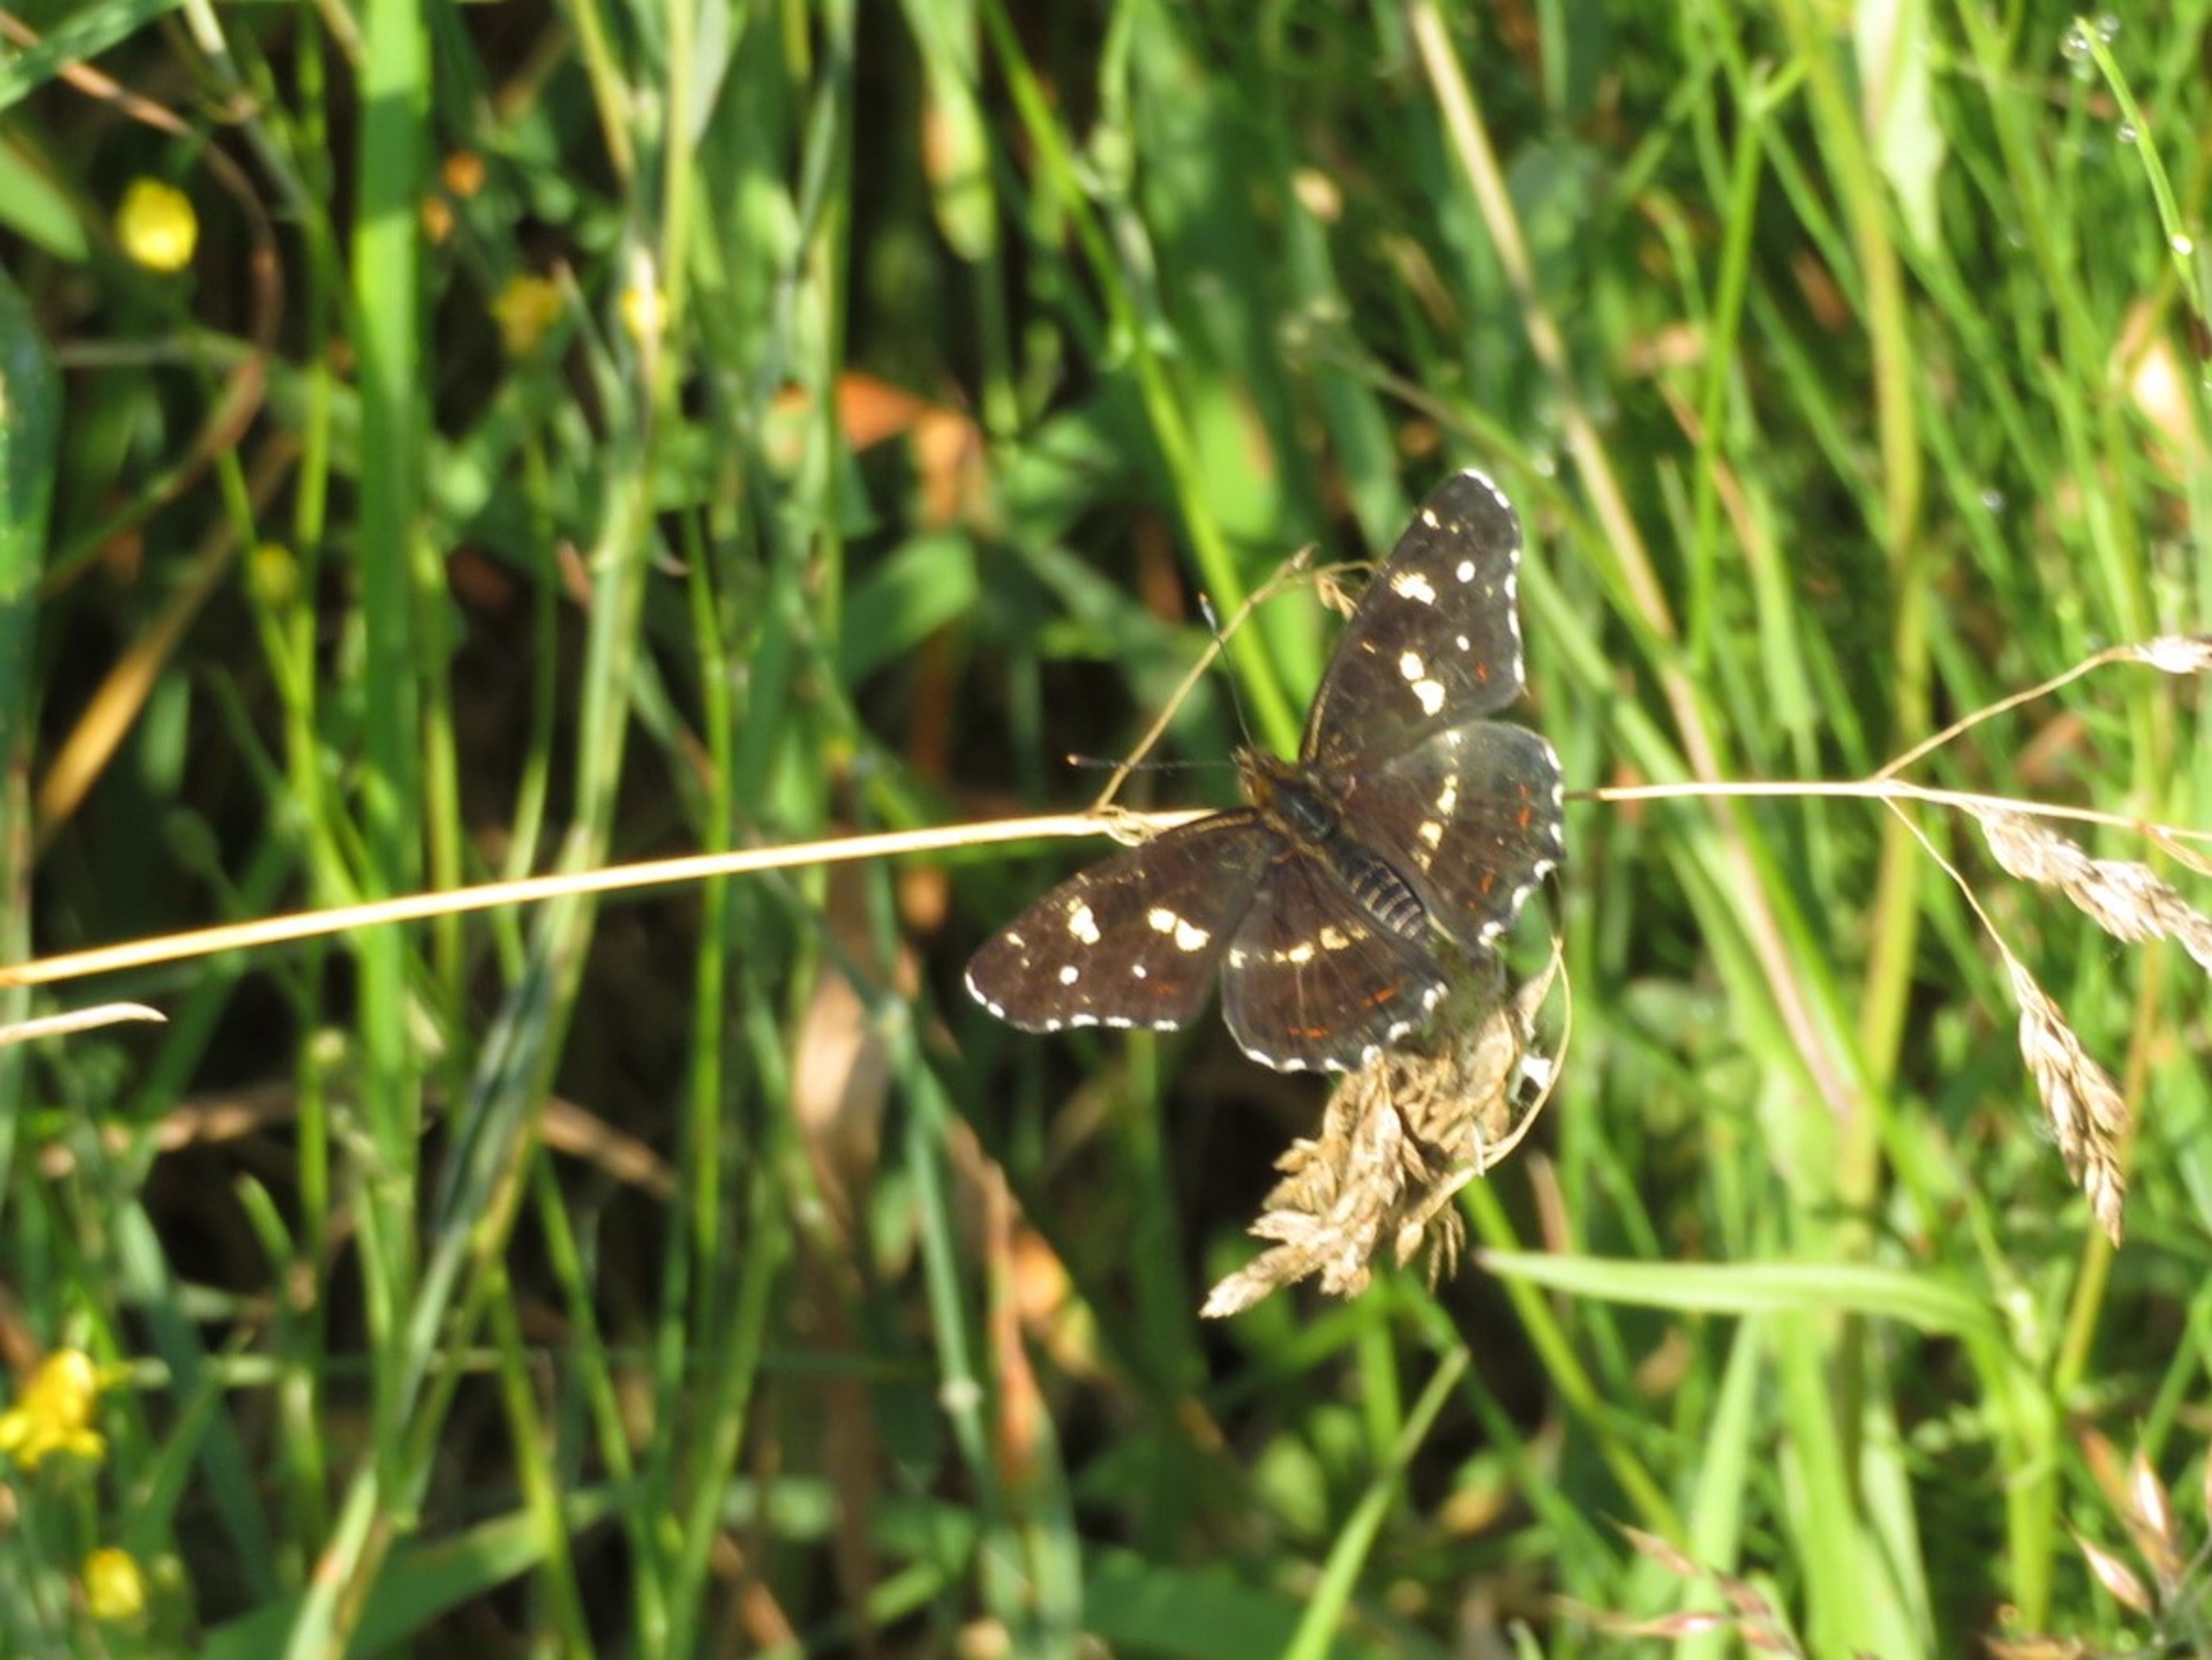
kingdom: Animalia
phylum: Arthropoda
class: Insecta
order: Lepidoptera
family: Nymphalidae
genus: Araschnia
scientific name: Araschnia levana
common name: Nældesommerfugl
